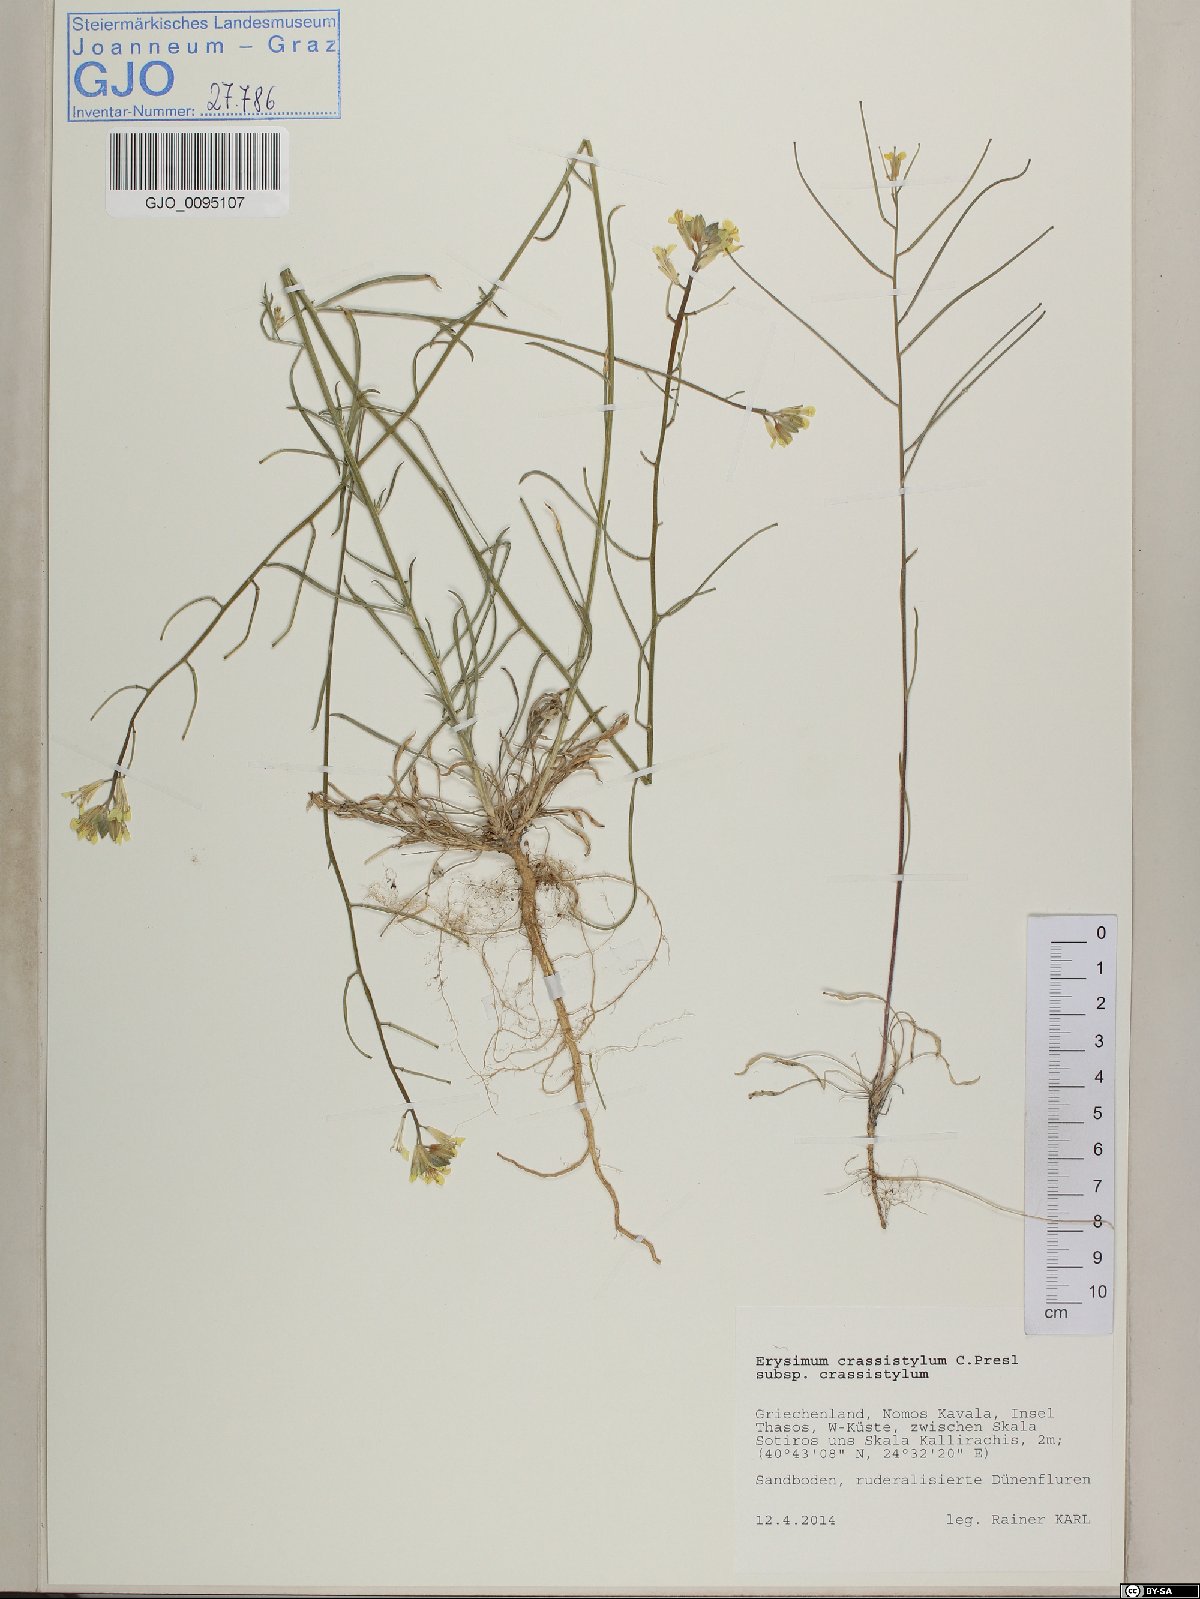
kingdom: Plantae
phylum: Tracheophyta
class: Magnoliopsida
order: Brassicales
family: Brassicaceae
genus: Erysimum
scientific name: Erysimum crassistylum
